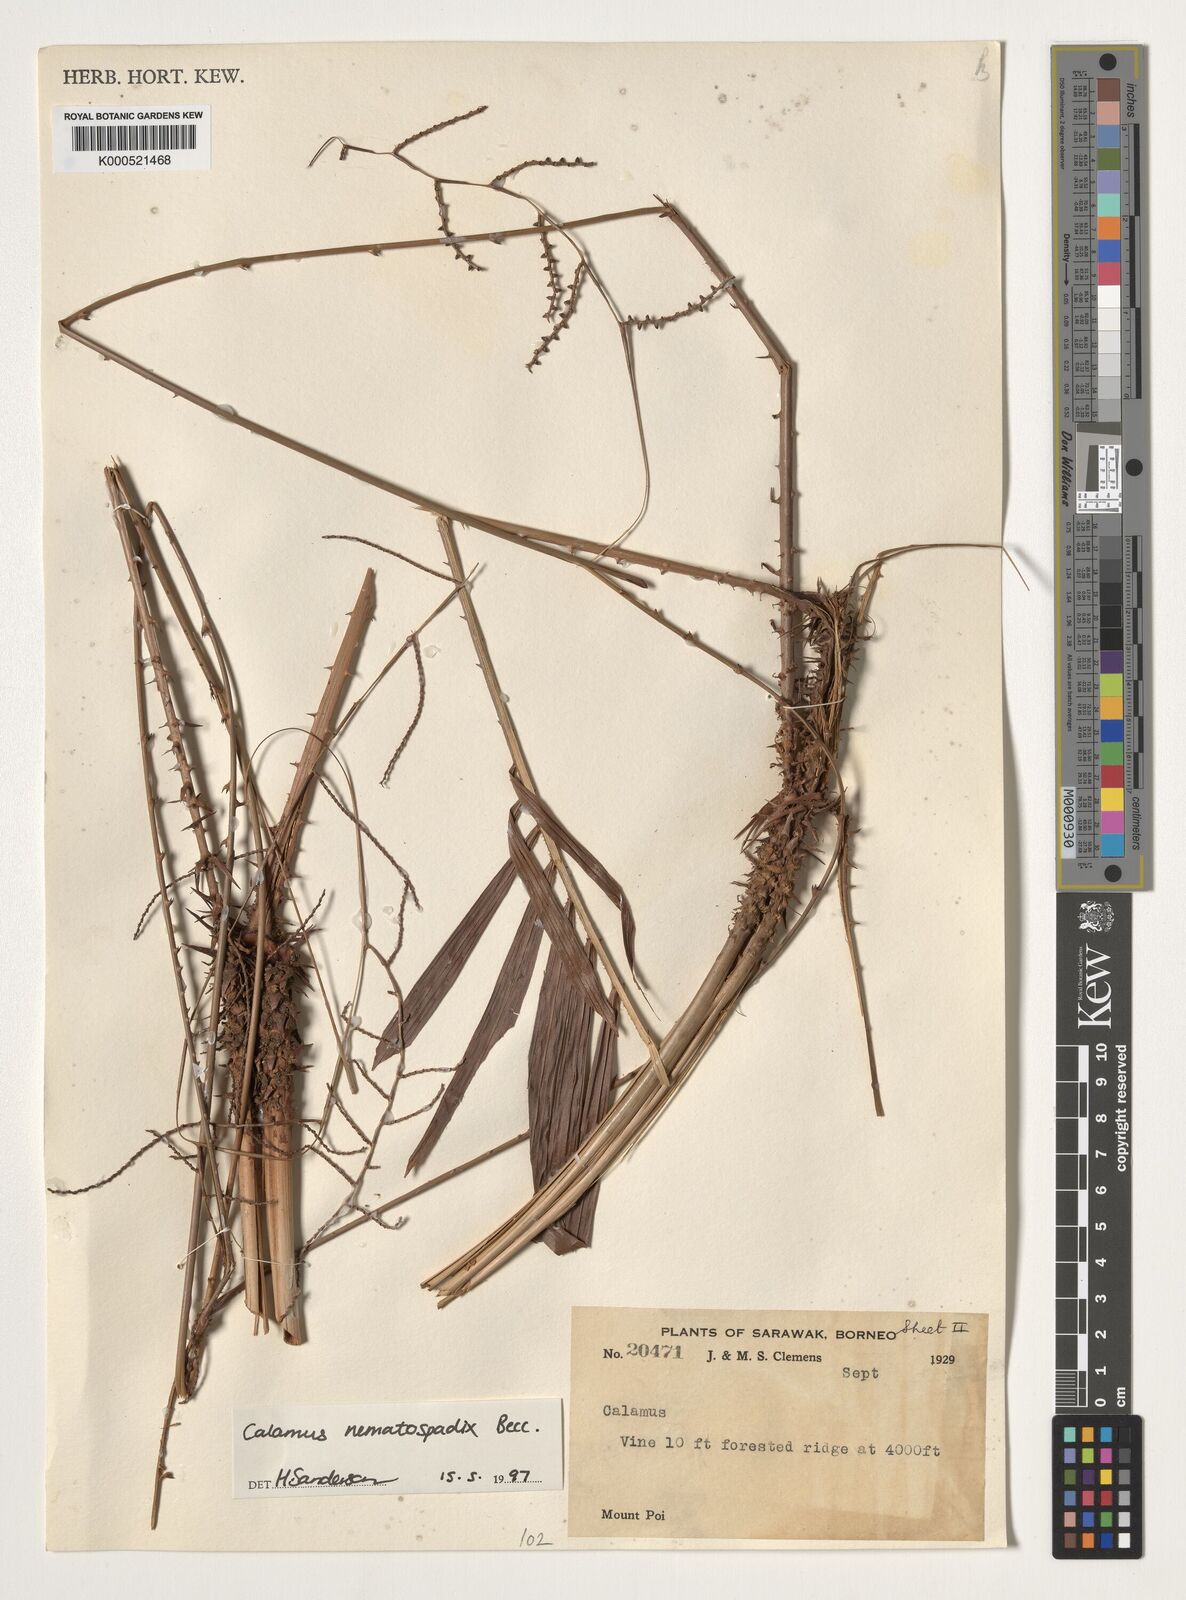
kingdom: Plantae
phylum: Tracheophyta
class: Liliopsida
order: Arecales
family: Arecaceae
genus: Calamus
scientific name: Calamus nematospadix
